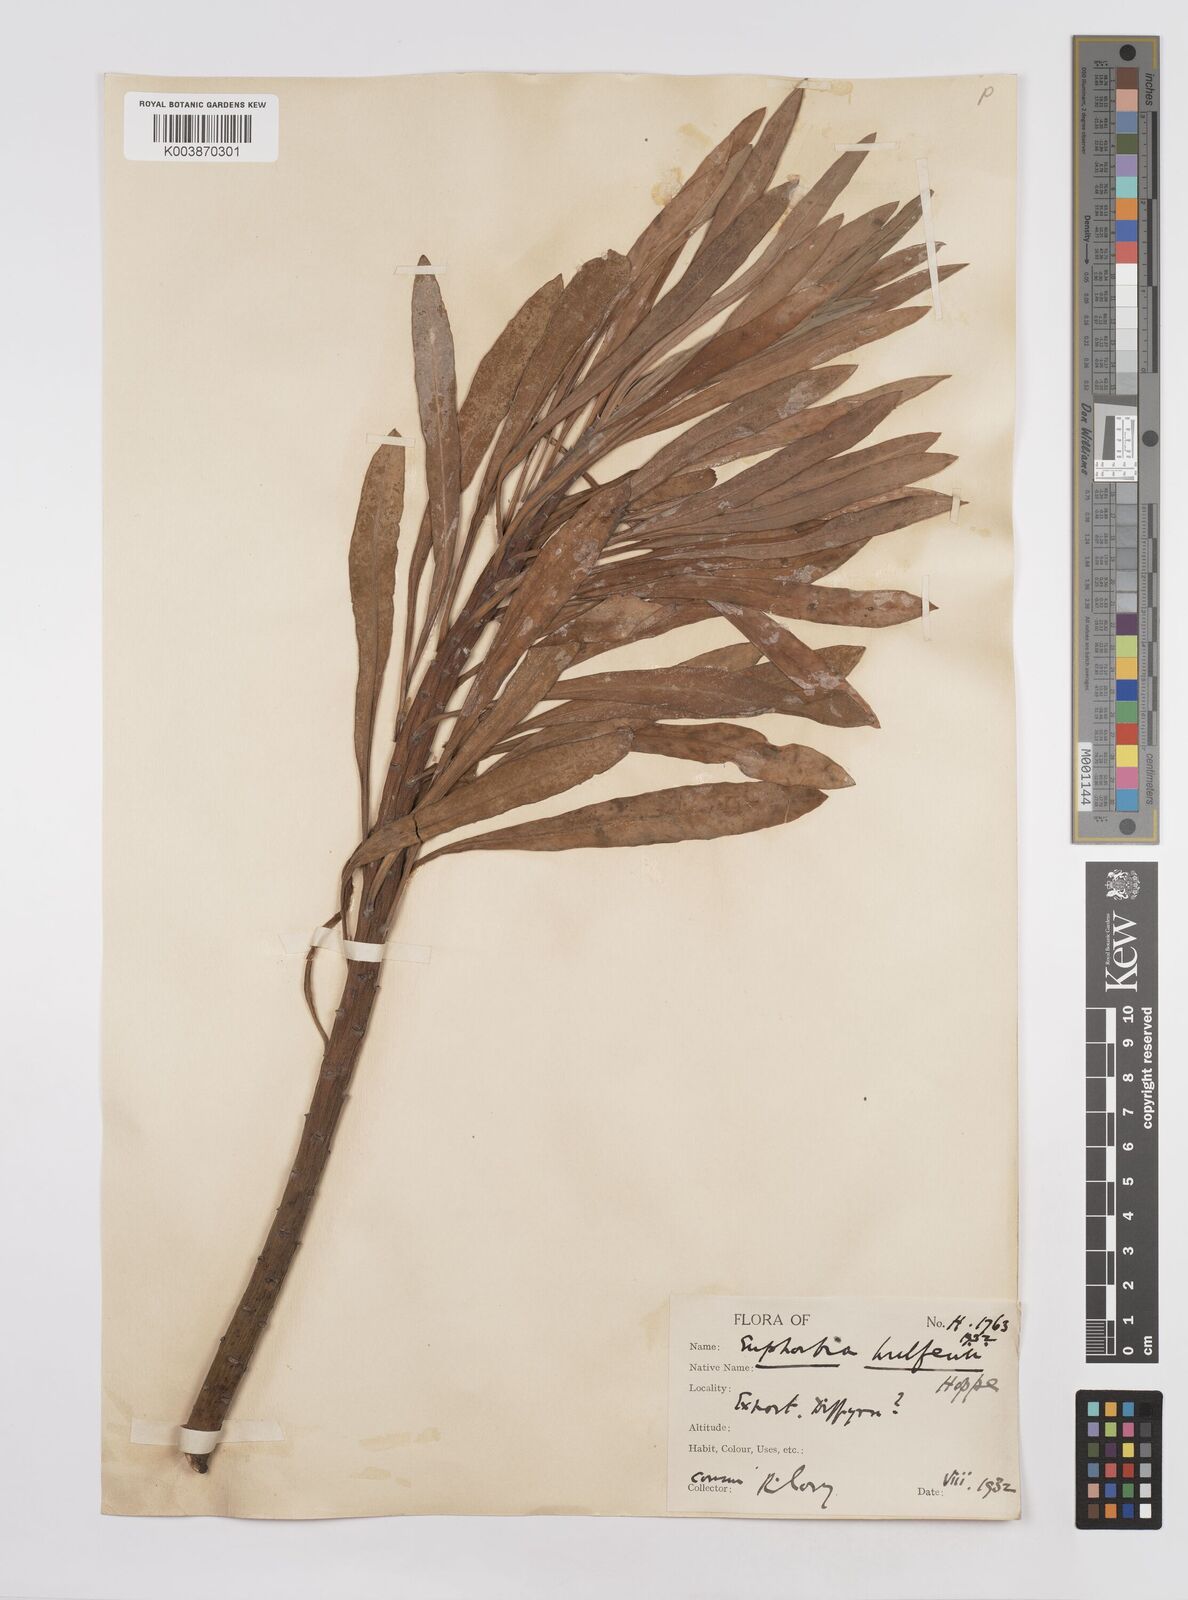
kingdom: Plantae
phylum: Tracheophyta
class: Magnoliopsida
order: Malpighiales
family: Euphorbiaceae
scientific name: Euphorbiaceae
